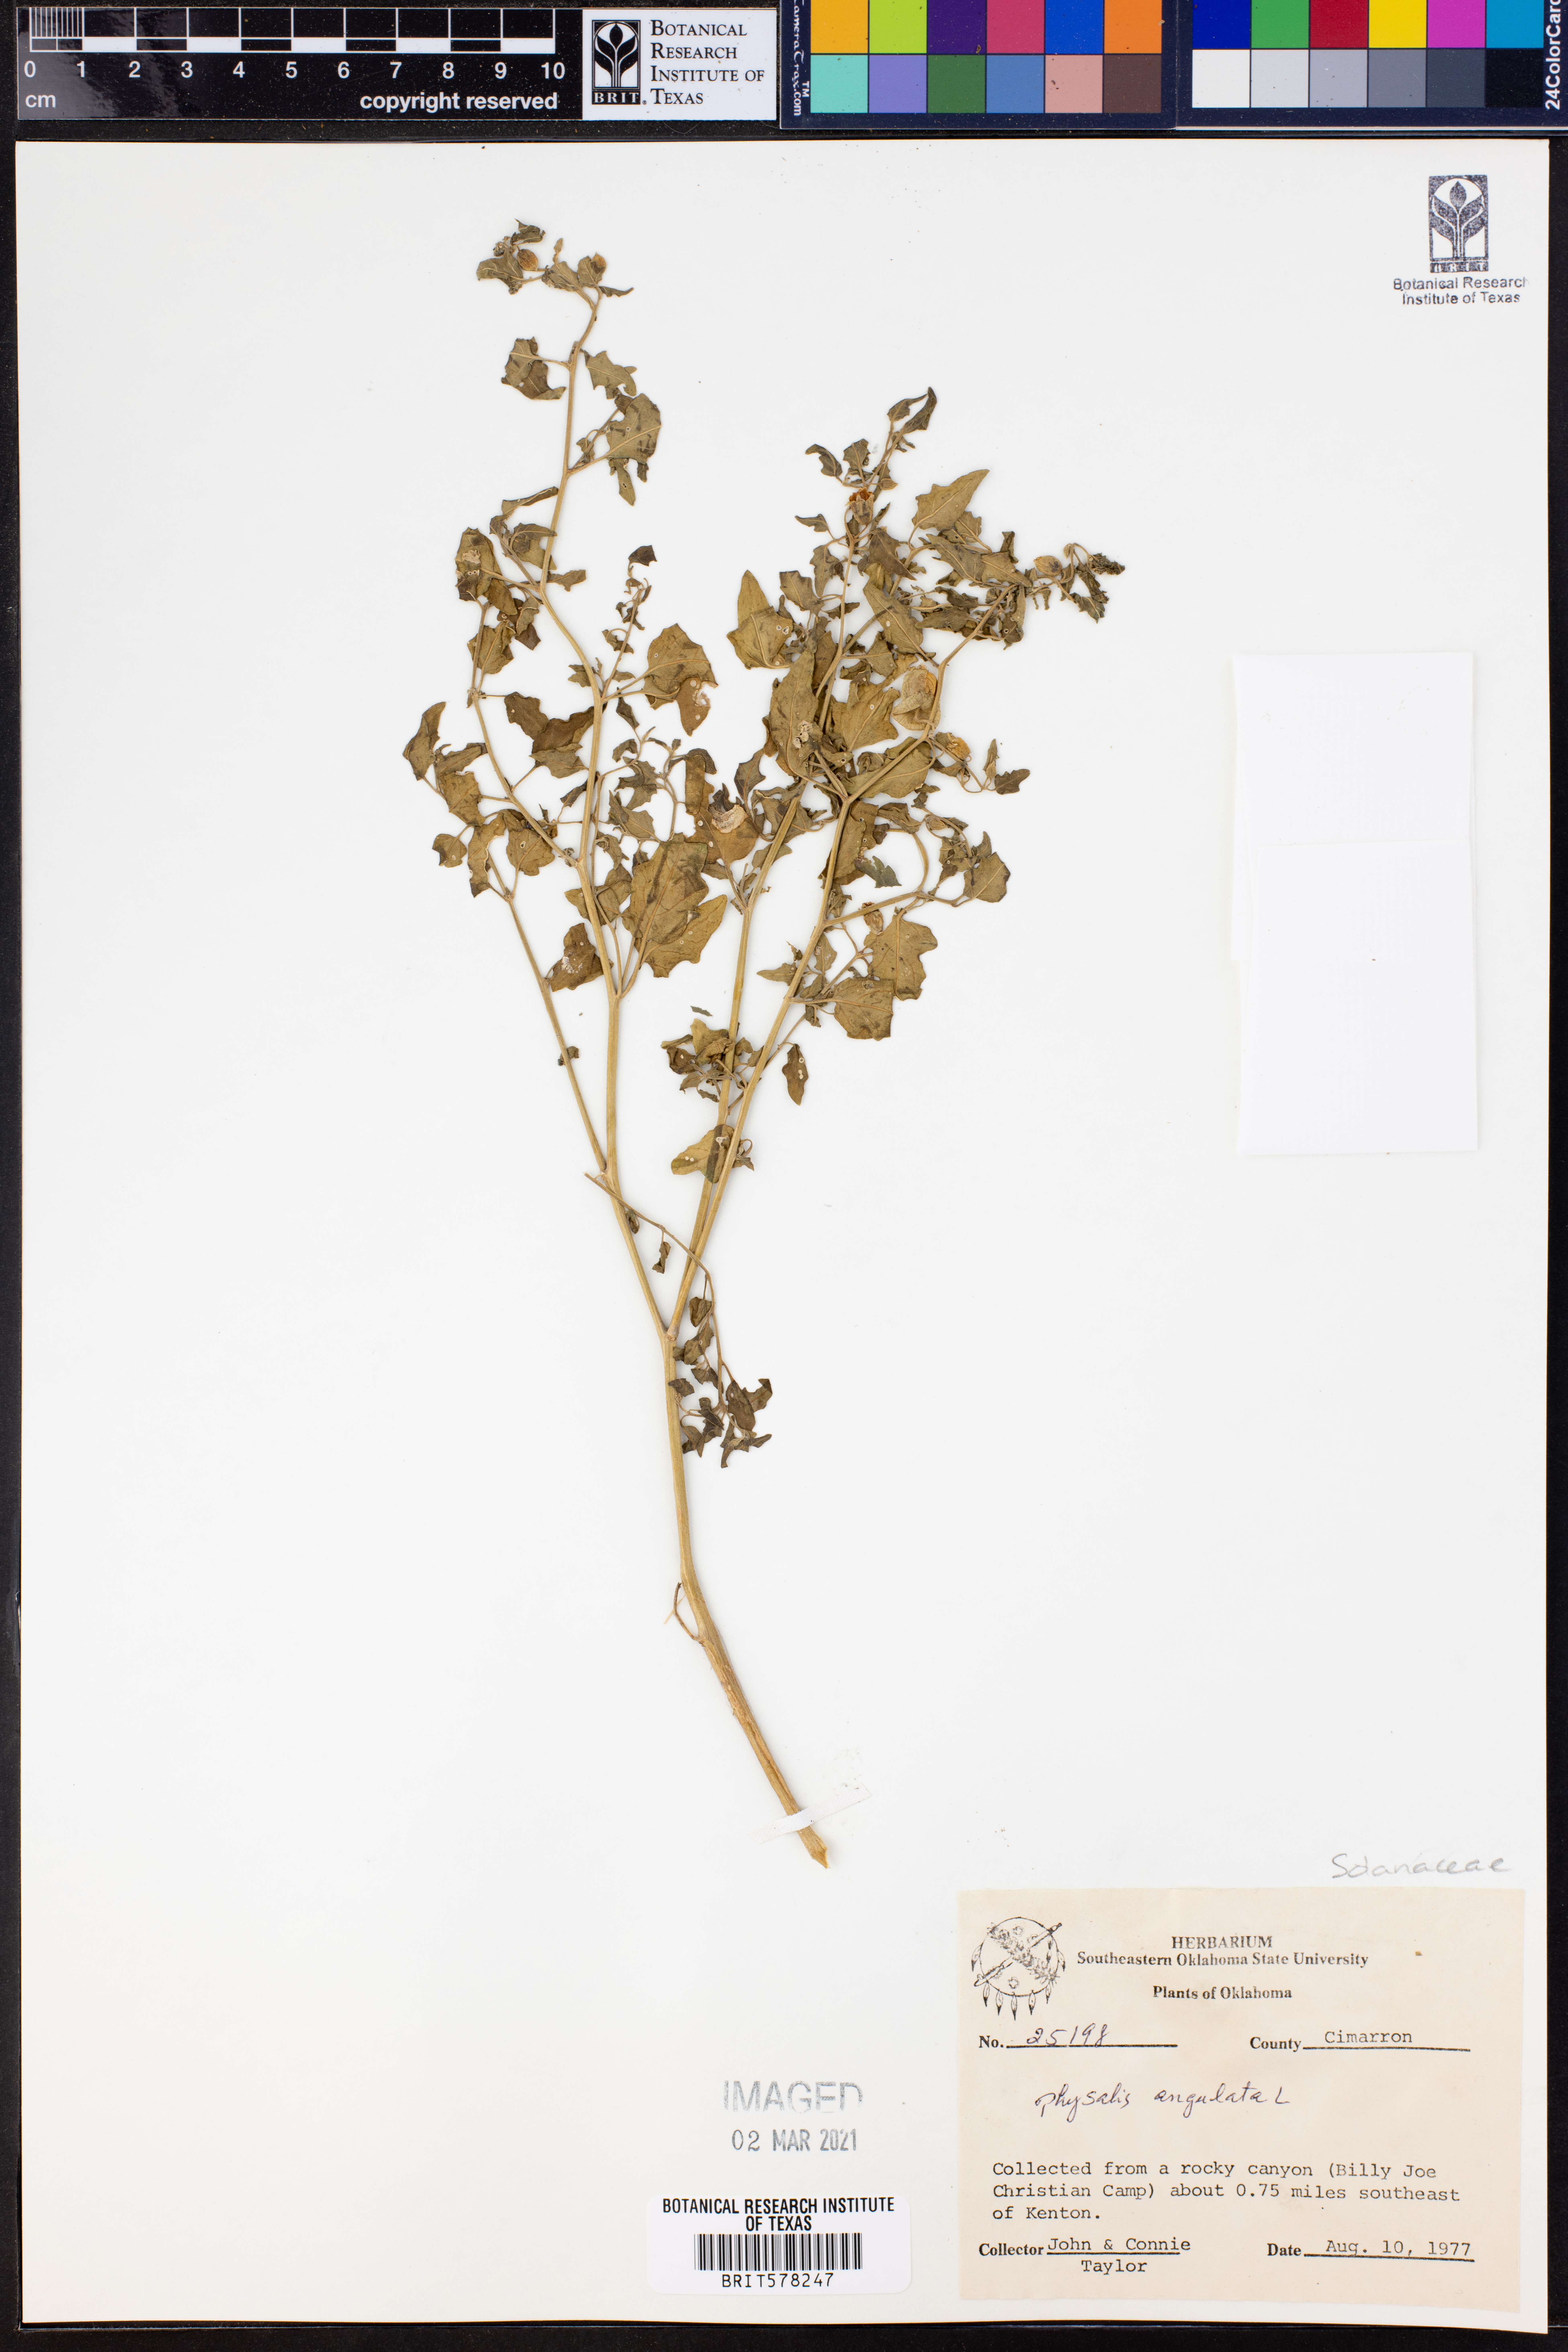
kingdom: Plantae
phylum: Tracheophyta
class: Magnoliopsida
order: Solanales
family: Solanaceae
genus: Physalis
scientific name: Physalis angulata
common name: Angular winter-cherry
